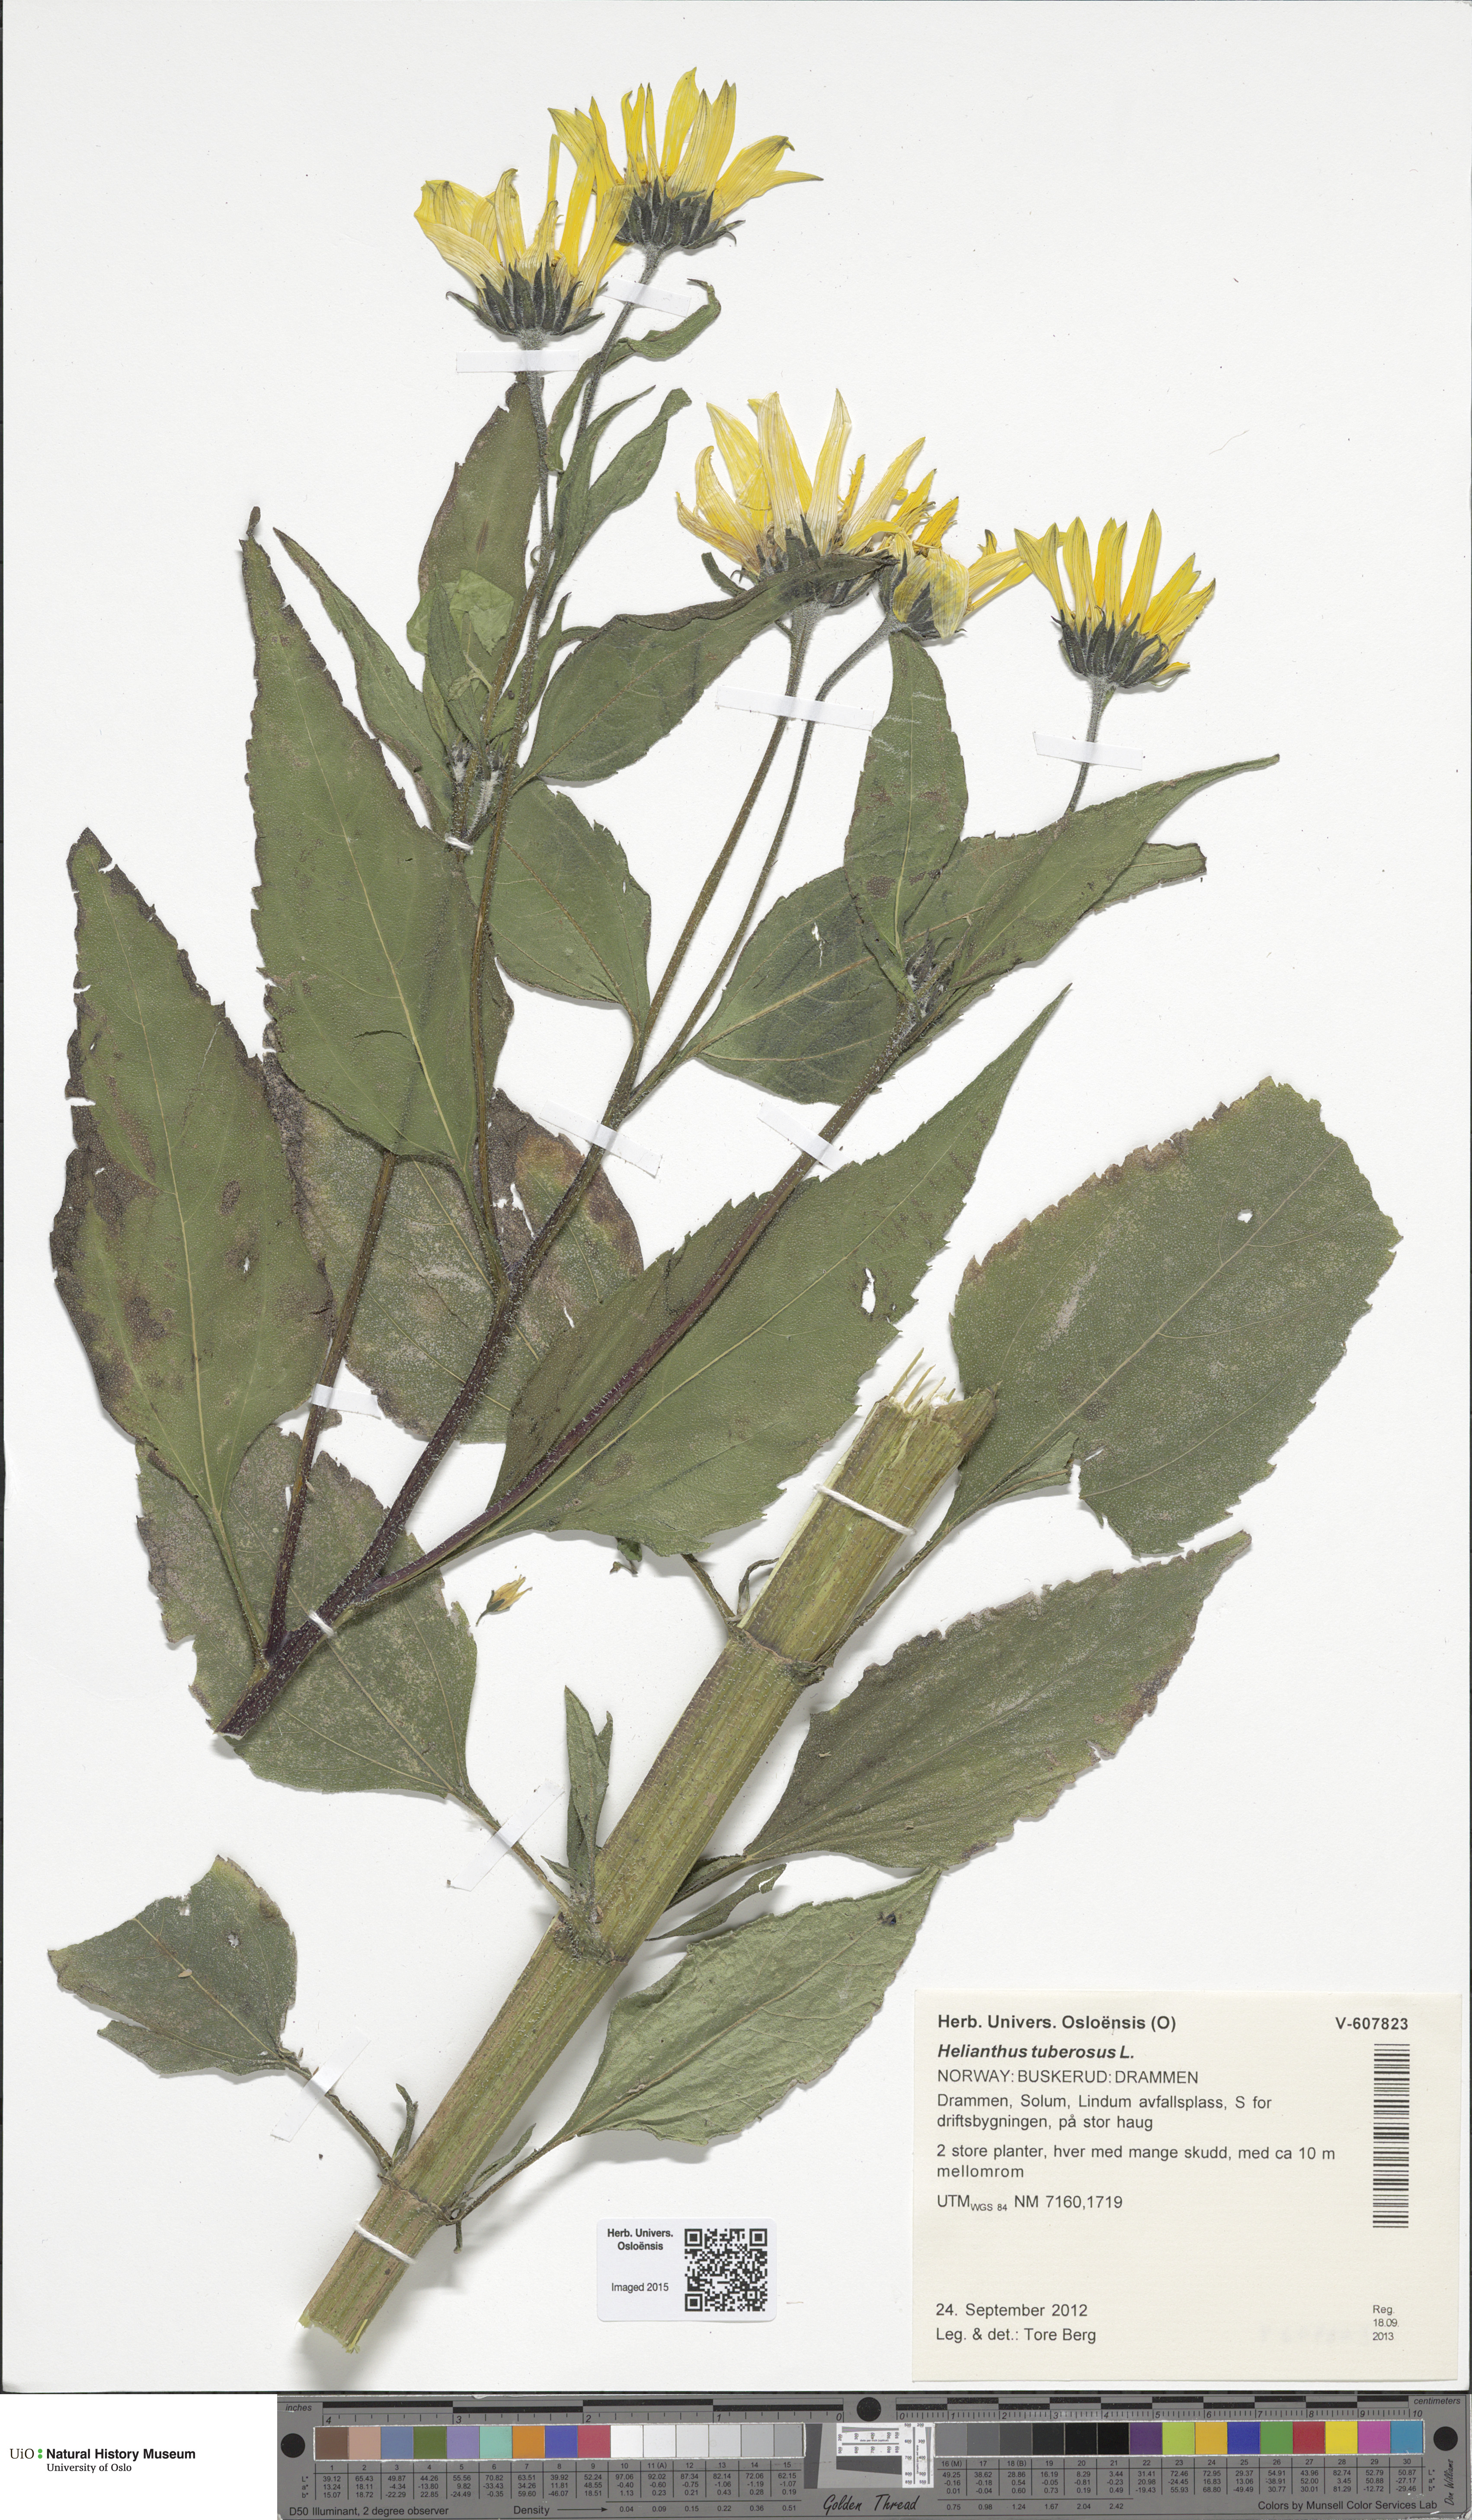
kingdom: Plantae
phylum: Tracheophyta
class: Magnoliopsida
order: Asterales
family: Asteraceae
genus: Helianthus
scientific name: Helianthus tuberosus
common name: Jerusalem artichoke
